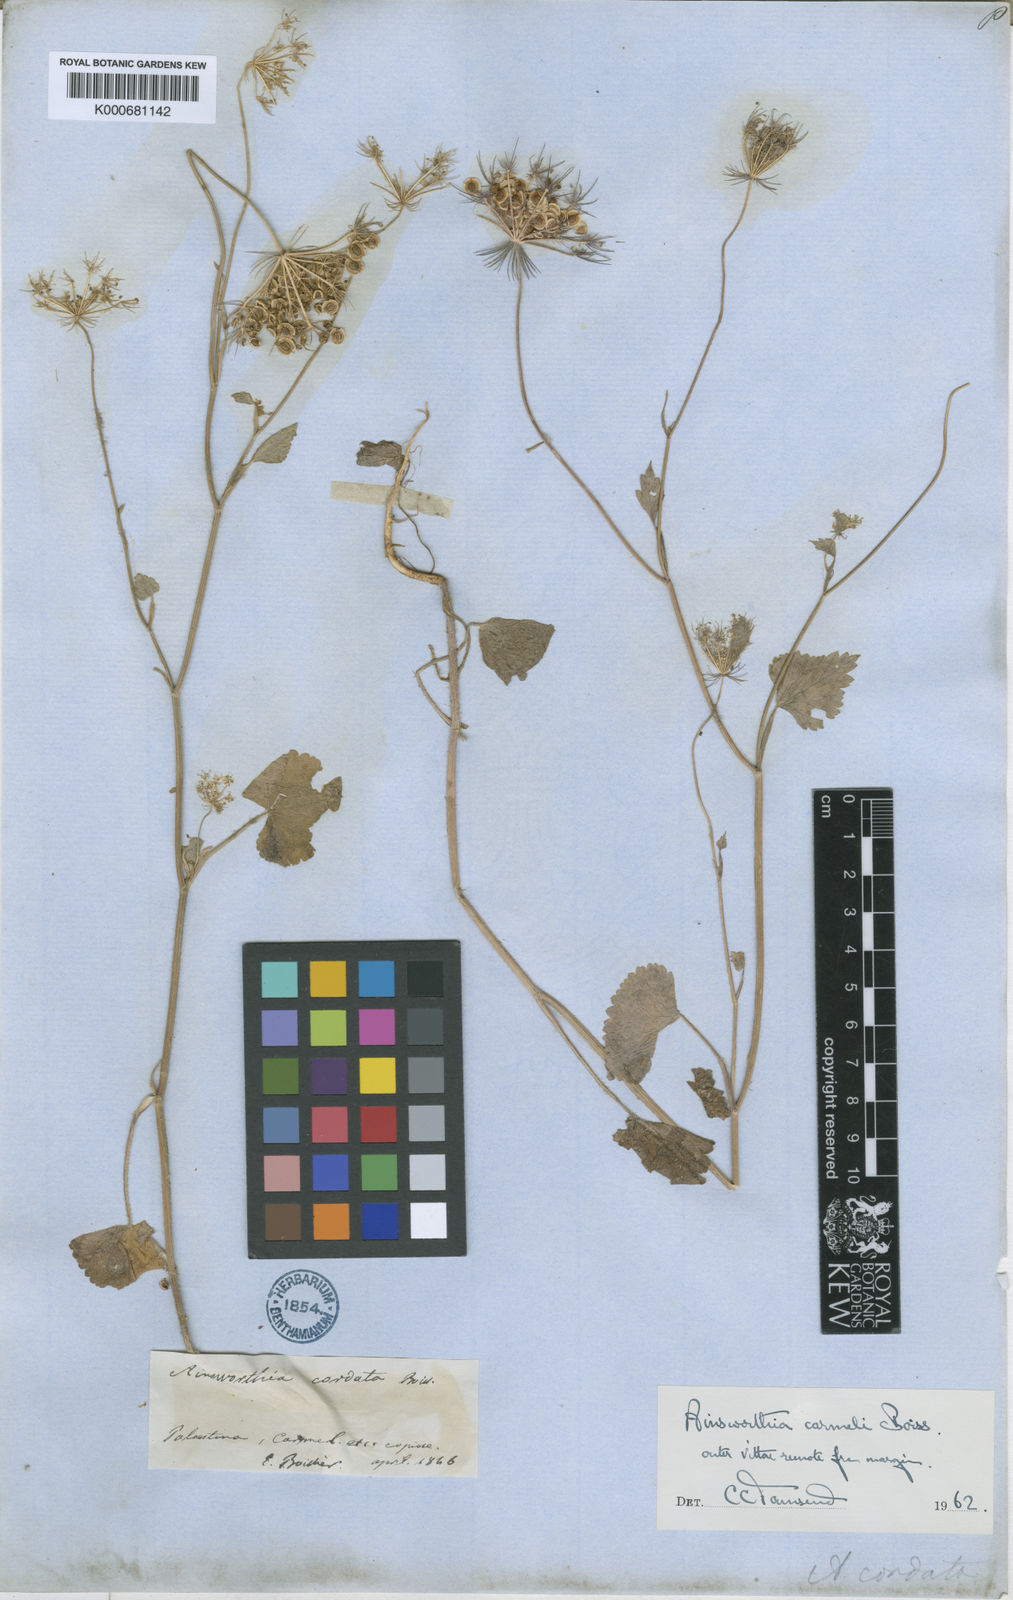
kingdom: Plantae
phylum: Tracheophyta
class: Magnoliopsida
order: Apiales
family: Apiaceae
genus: Synelcosciadium
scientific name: Synelcosciadium carmeli
